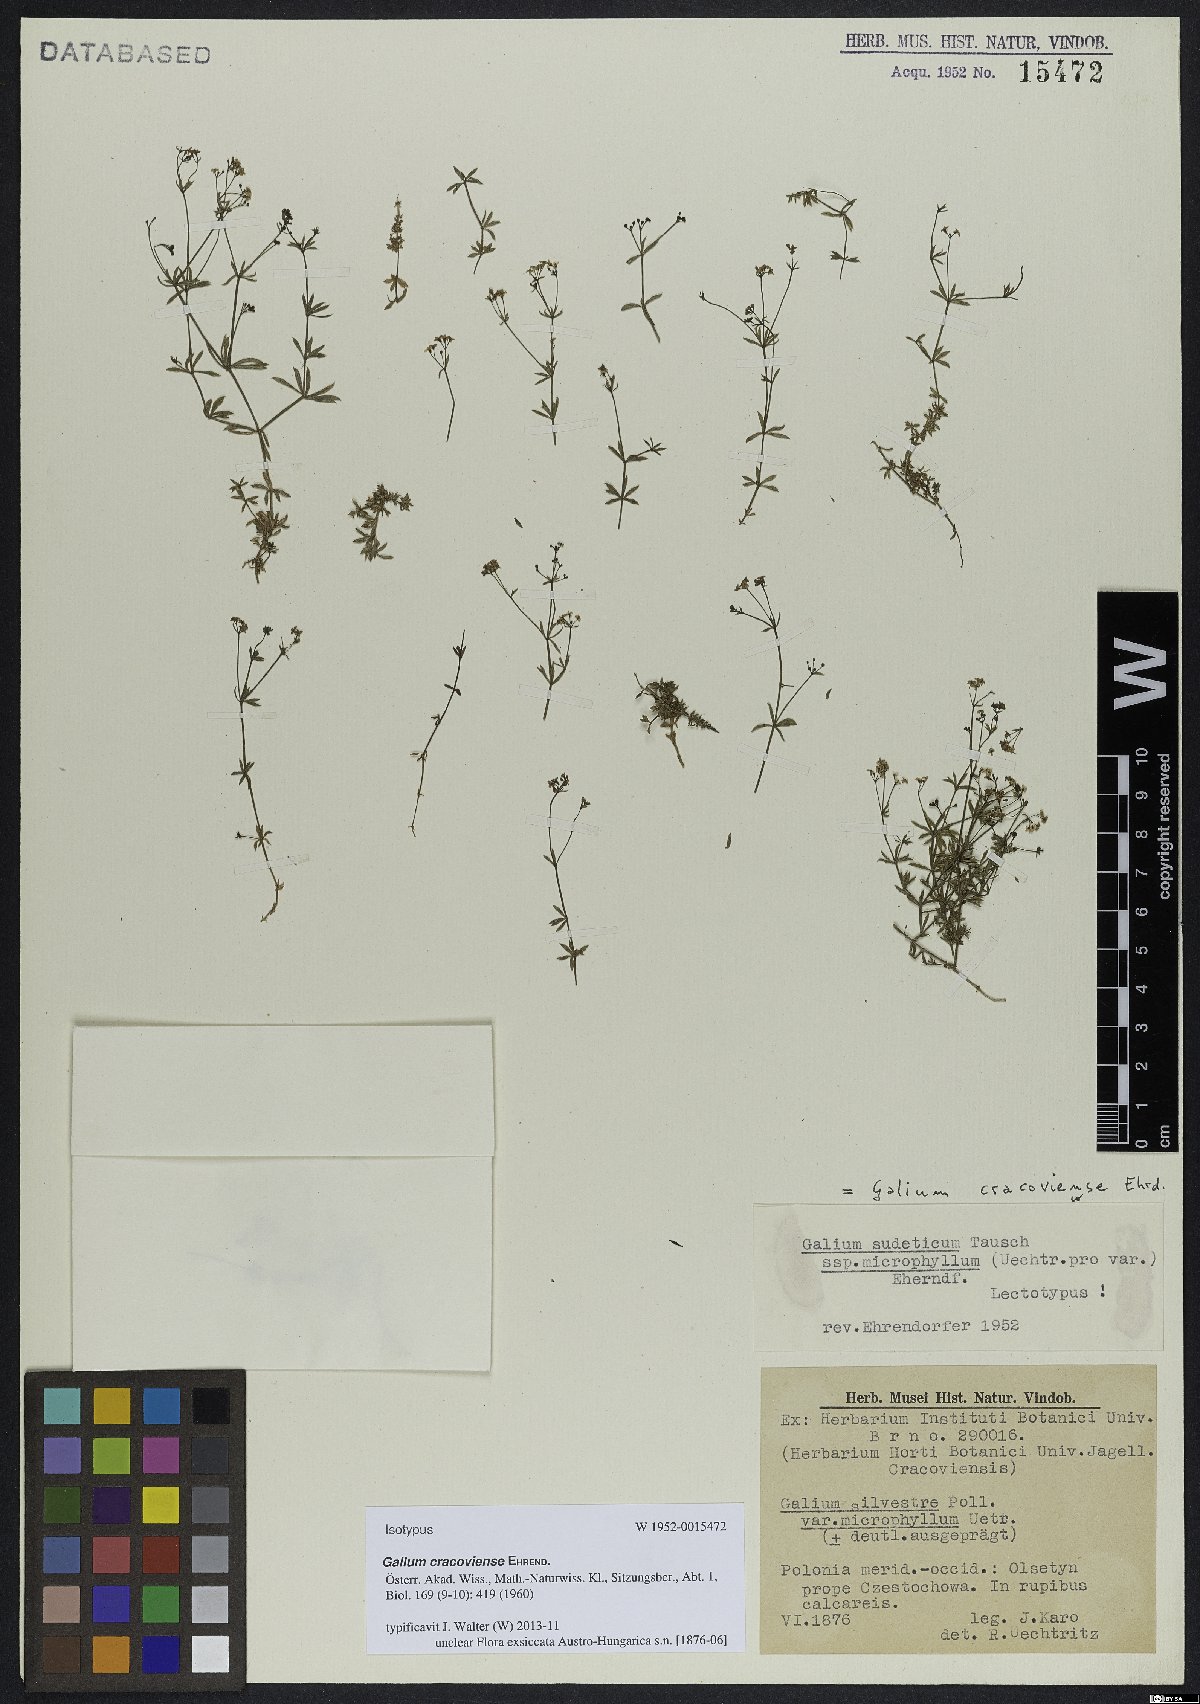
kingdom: Plantae
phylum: Tracheophyta
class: Magnoliopsida
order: Gentianales
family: Rubiaceae
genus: Galium
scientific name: Galium cracoviense
